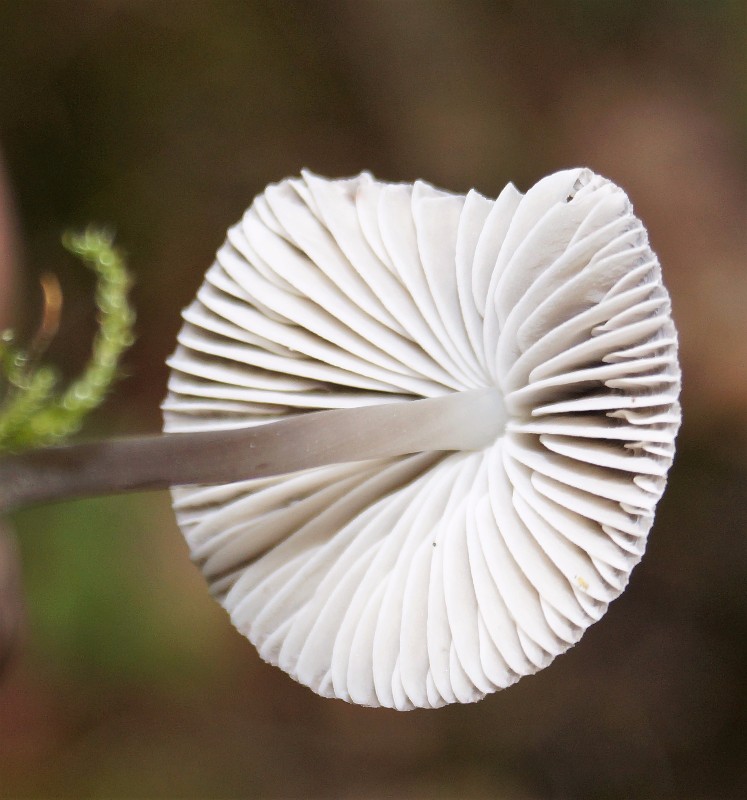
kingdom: Fungi
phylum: Basidiomycota
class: Agaricomycetes
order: Agaricales
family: Mycenaceae
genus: Mycena
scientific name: Mycena
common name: huesvamp
